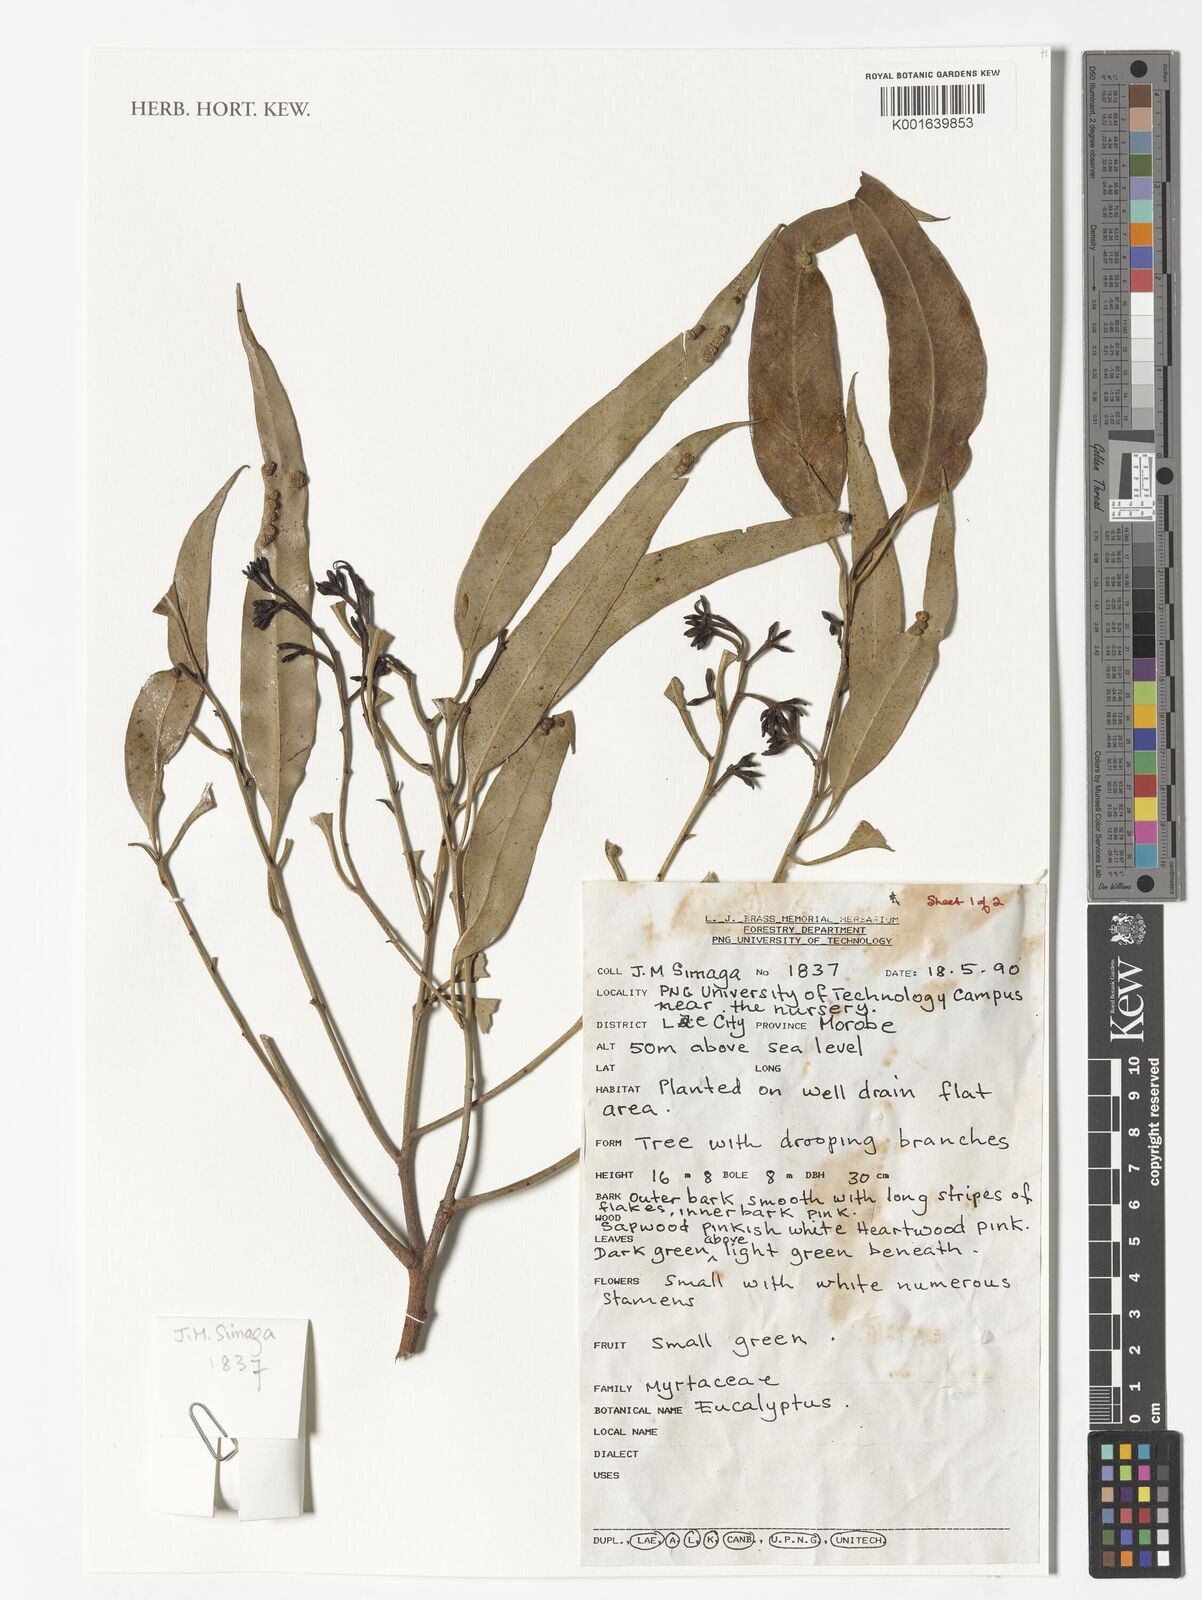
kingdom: Plantae
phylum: Tracheophyta
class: Magnoliopsida
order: Myrtales
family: Myrtaceae
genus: Eucalyptus
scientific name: Eucalyptus
